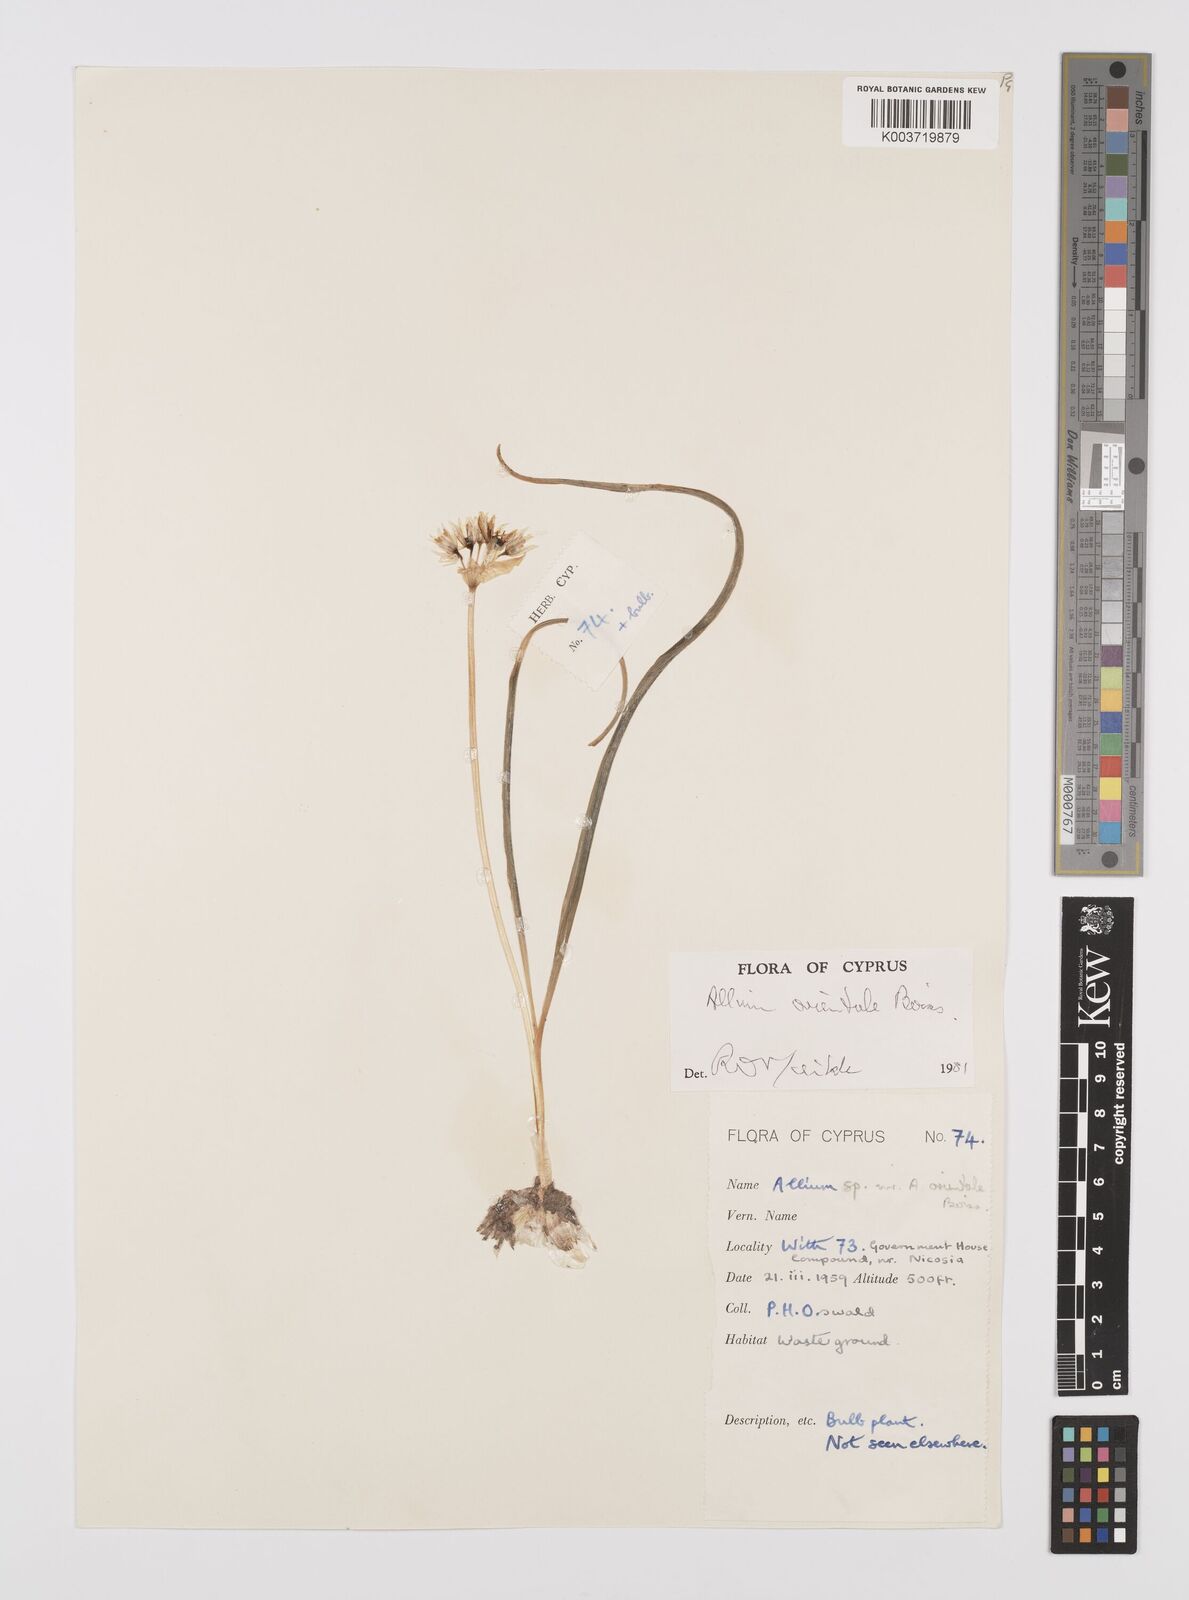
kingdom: Plantae
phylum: Tracheophyta
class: Liliopsida
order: Asparagales
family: Amaryllidaceae
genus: Allium
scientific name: Allium orientale
